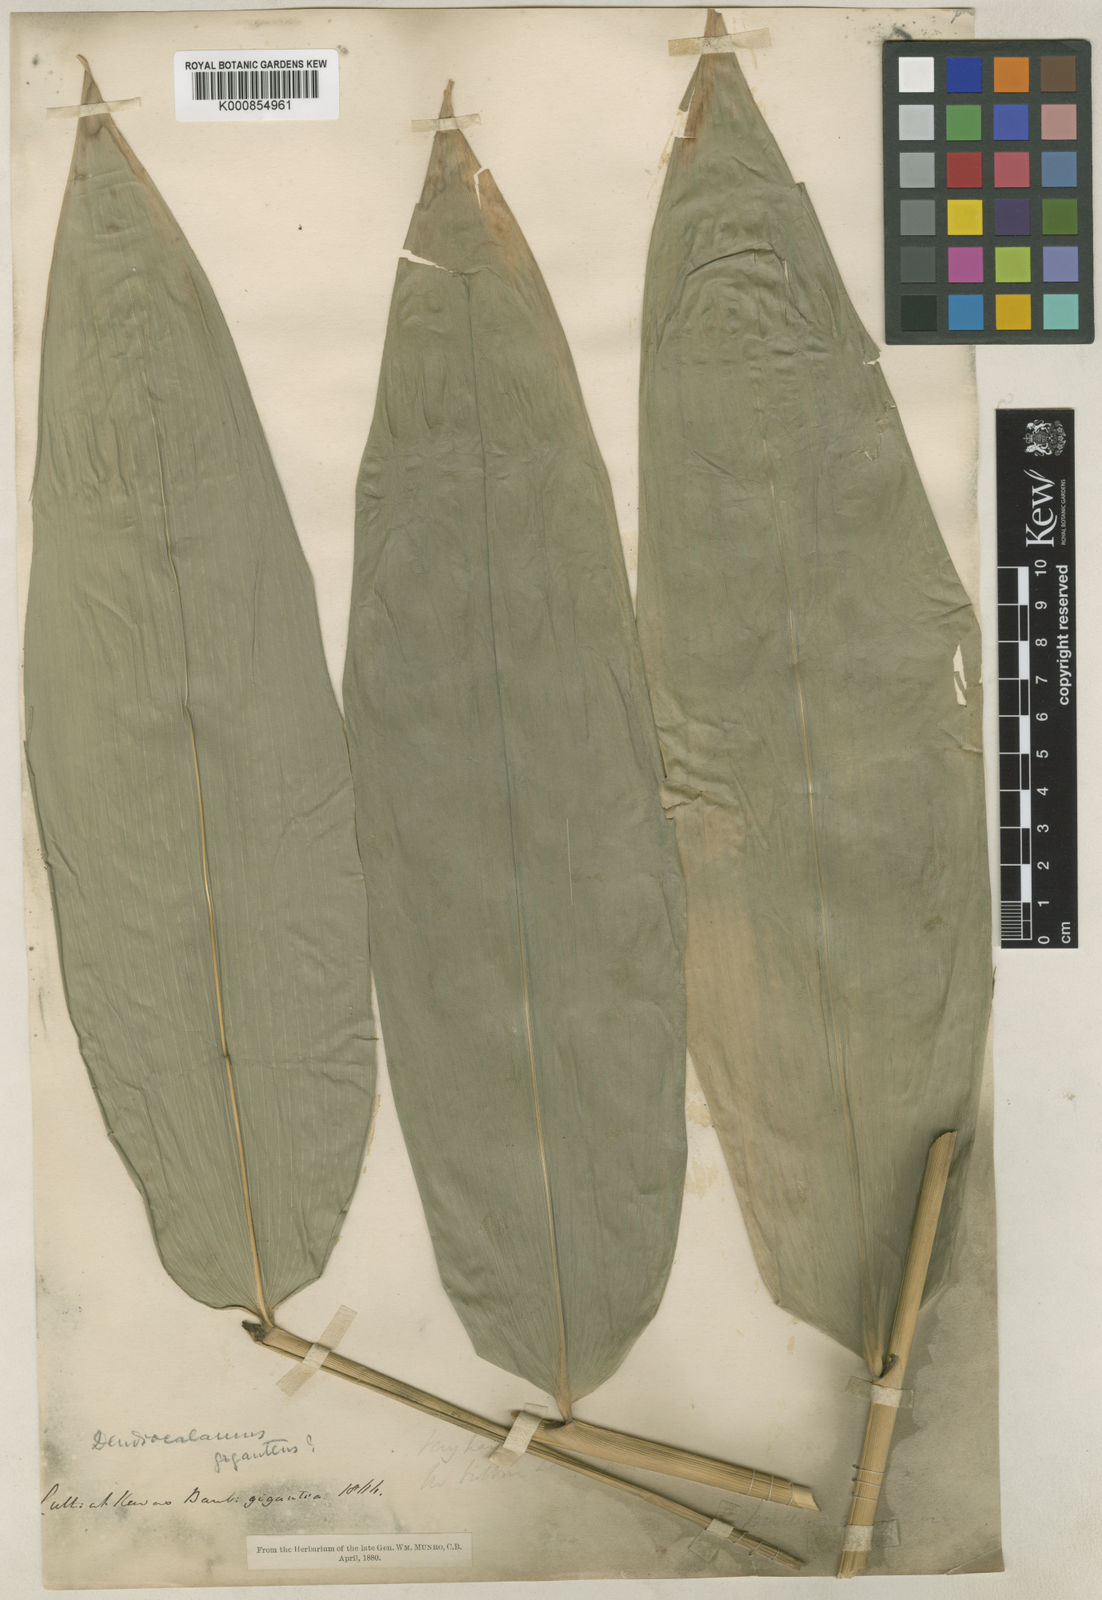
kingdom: Plantae
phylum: Tracheophyta
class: Liliopsida
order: Poales
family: Poaceae
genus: Dendrocalamus
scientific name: Dendrocalamus giganteus
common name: Giant bamboo
